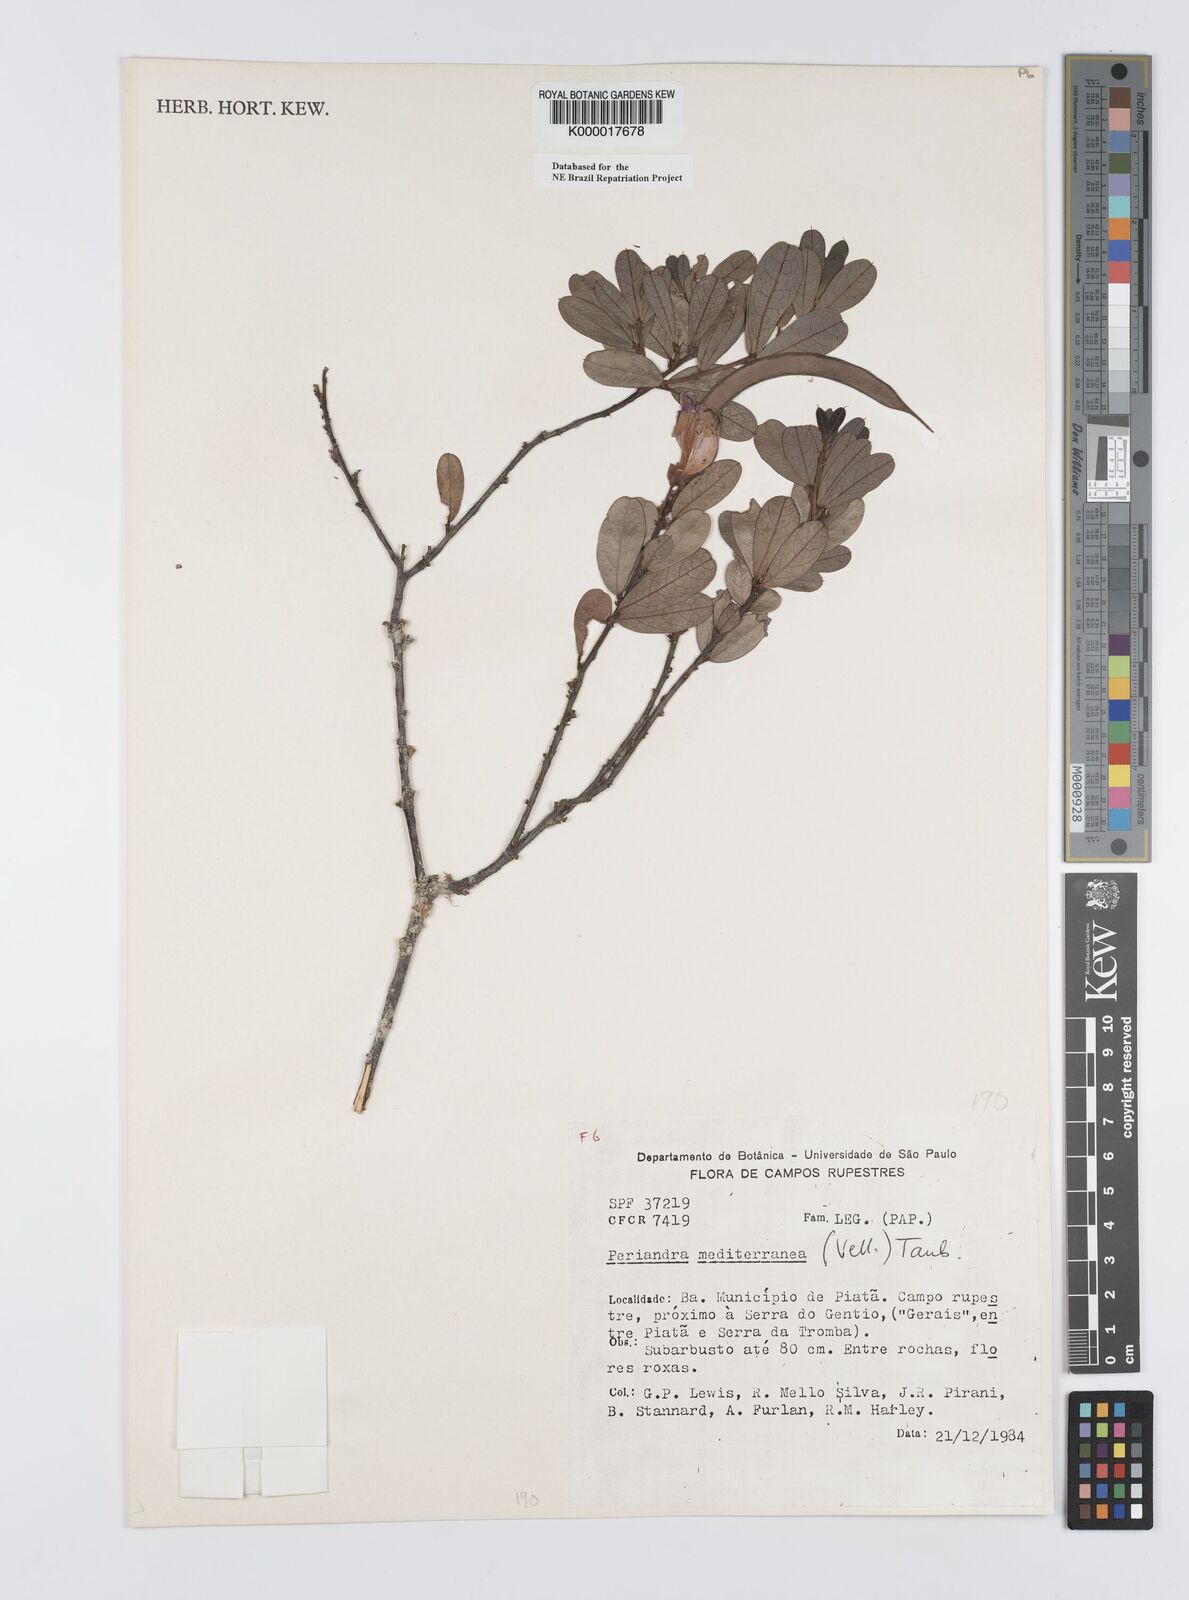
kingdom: Plantae
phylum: Tracheophyta
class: Magnoliopsida
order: Fabales
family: Fabaceae
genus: Periandra
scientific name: Periandra mediterranea
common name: Brazilian licorice
